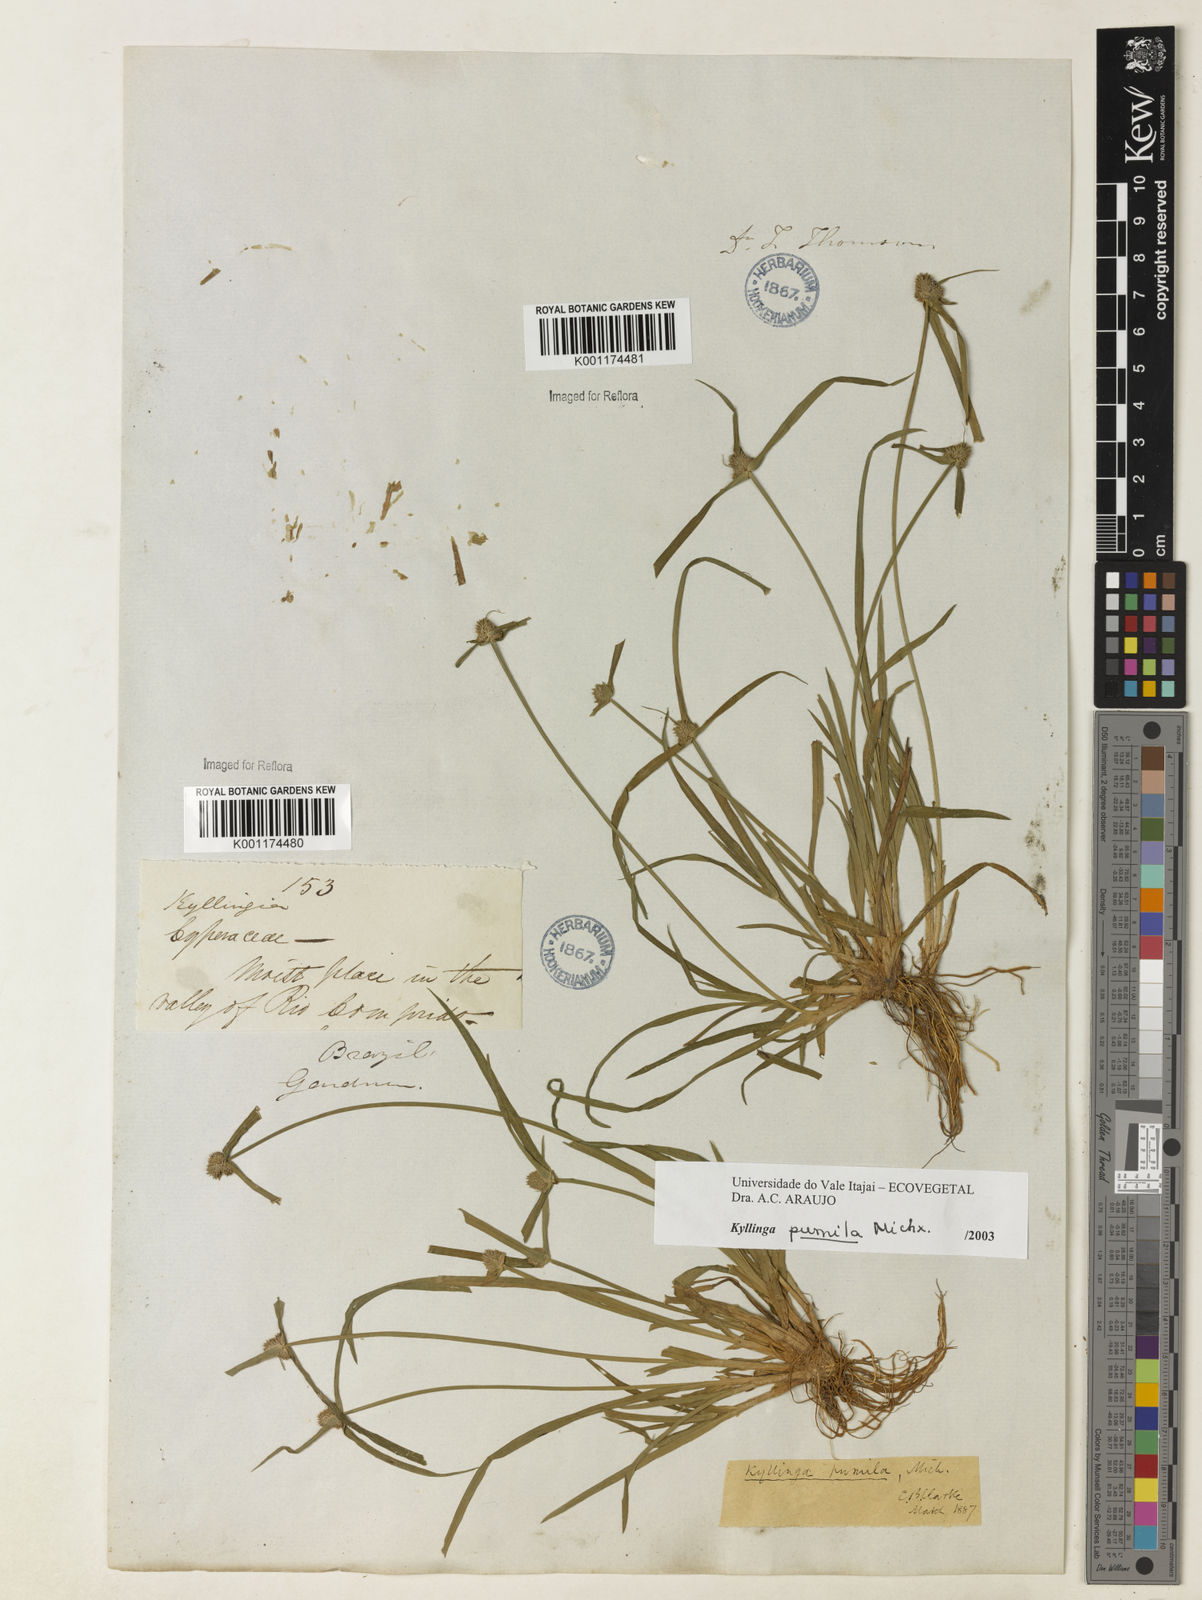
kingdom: Plantae
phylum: Tracheophyta
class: Liliopsida
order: Poales
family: Cyperaceae
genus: Cyperus
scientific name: Cyperus
